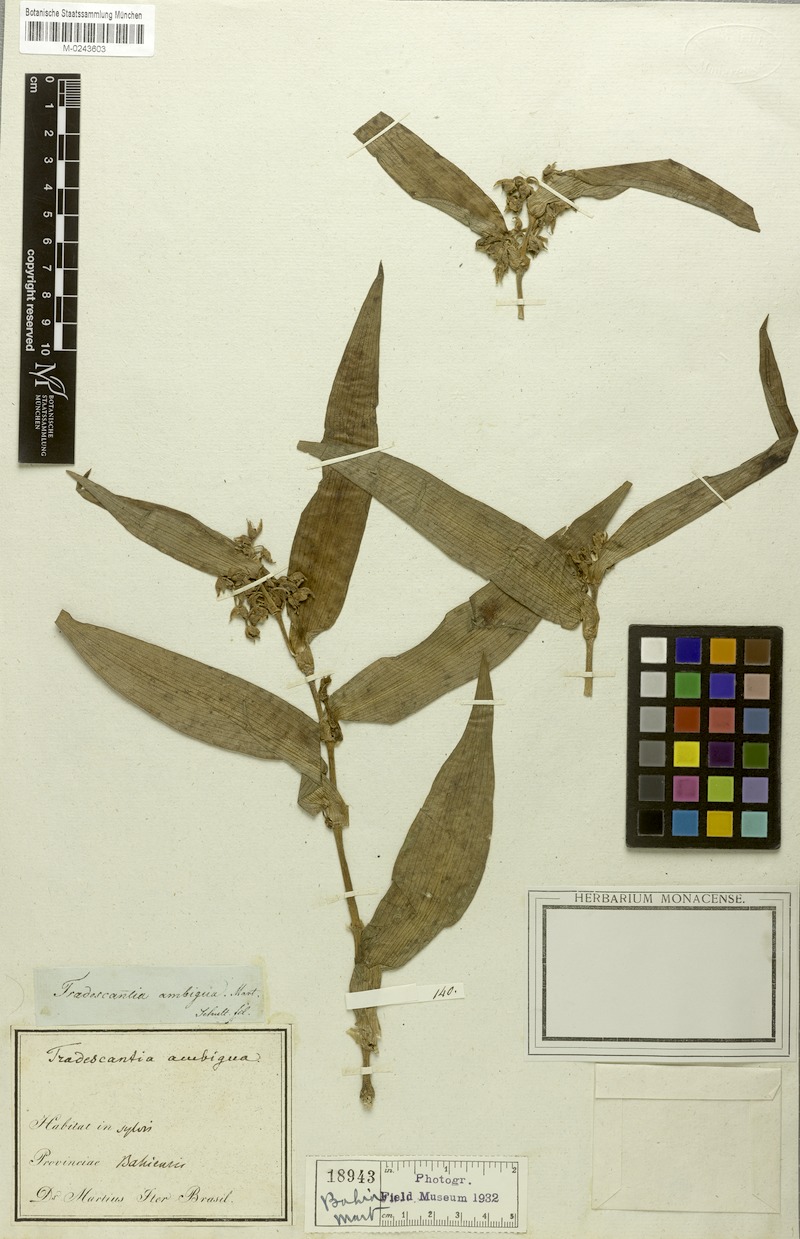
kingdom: Plantae
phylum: Tracheophyta
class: Liliopsida
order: Commelinales
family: Commelinaceae
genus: Tradescantia
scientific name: Tradescantia ambigua
